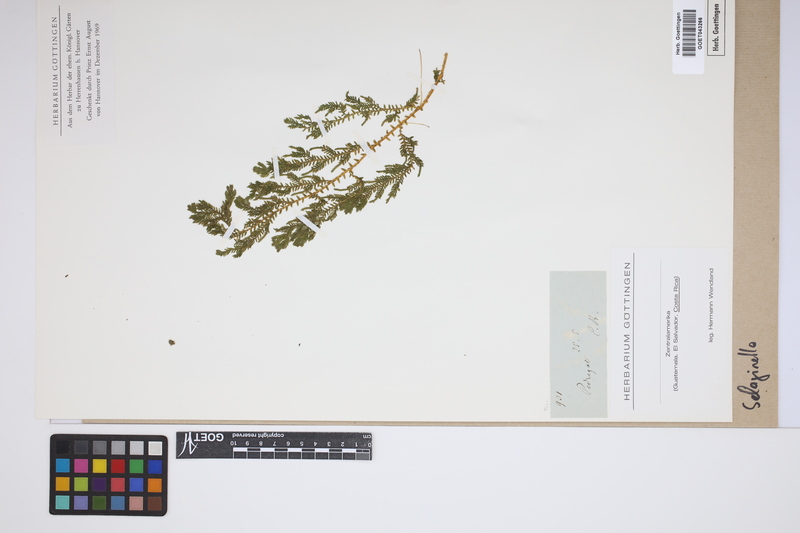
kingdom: Plantae
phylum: Tracheophyta
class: Lycopodiopsida
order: Selaginellales
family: Selaginellaceae
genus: Selaginella
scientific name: Selaginella
